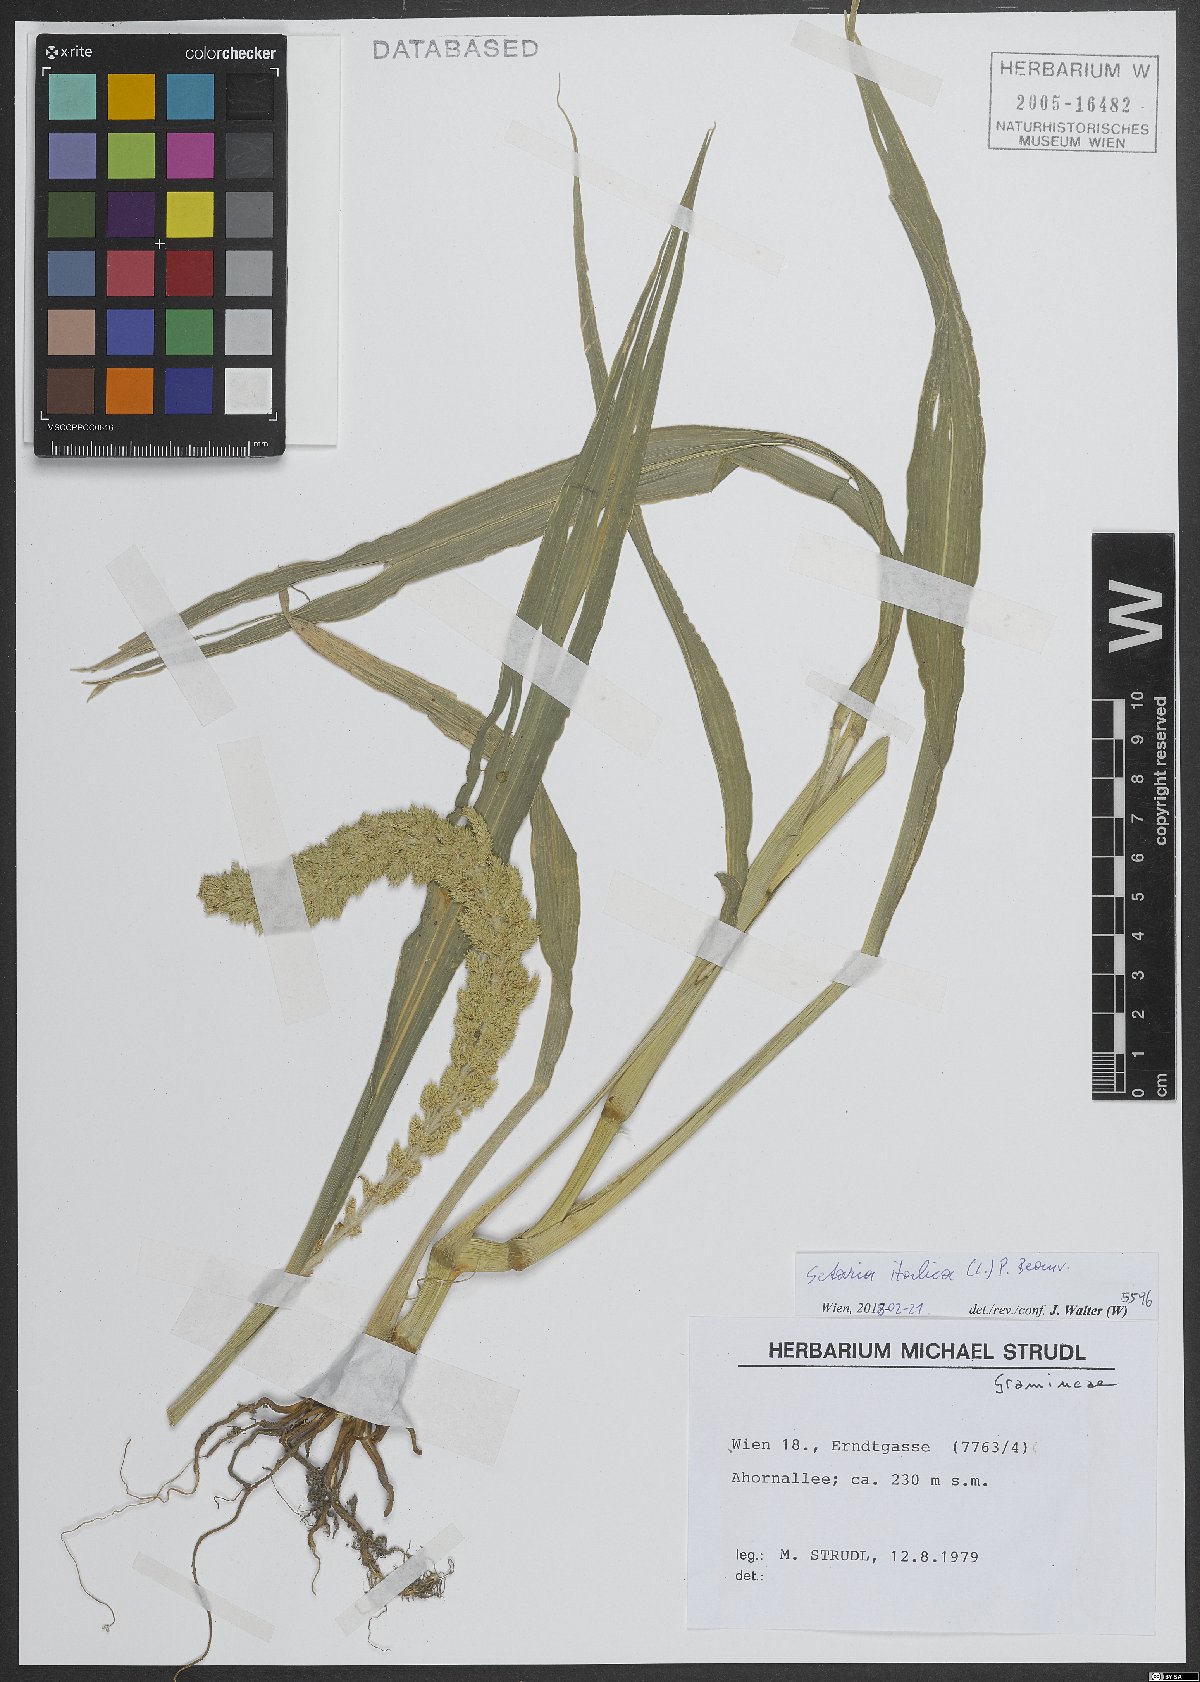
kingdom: Plantae
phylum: Tracheophyta
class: Liliopsida
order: Poales
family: Poaceae
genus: Setaria
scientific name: Setaria italica
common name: Foxtail bristle-grass
